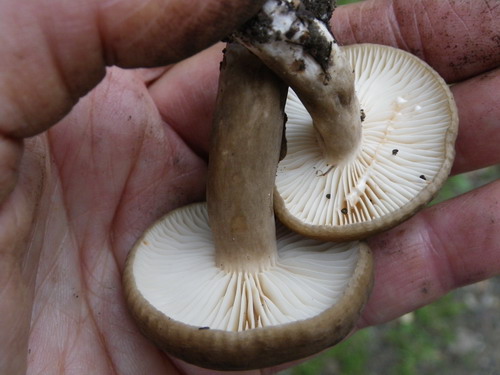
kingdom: Fungi
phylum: Basidiomycota
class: Agaricomycetes
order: Russulales
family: Russulaceae
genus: Lactarius
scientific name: Lactarius romagnesii
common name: fjernbladet mælkehat
